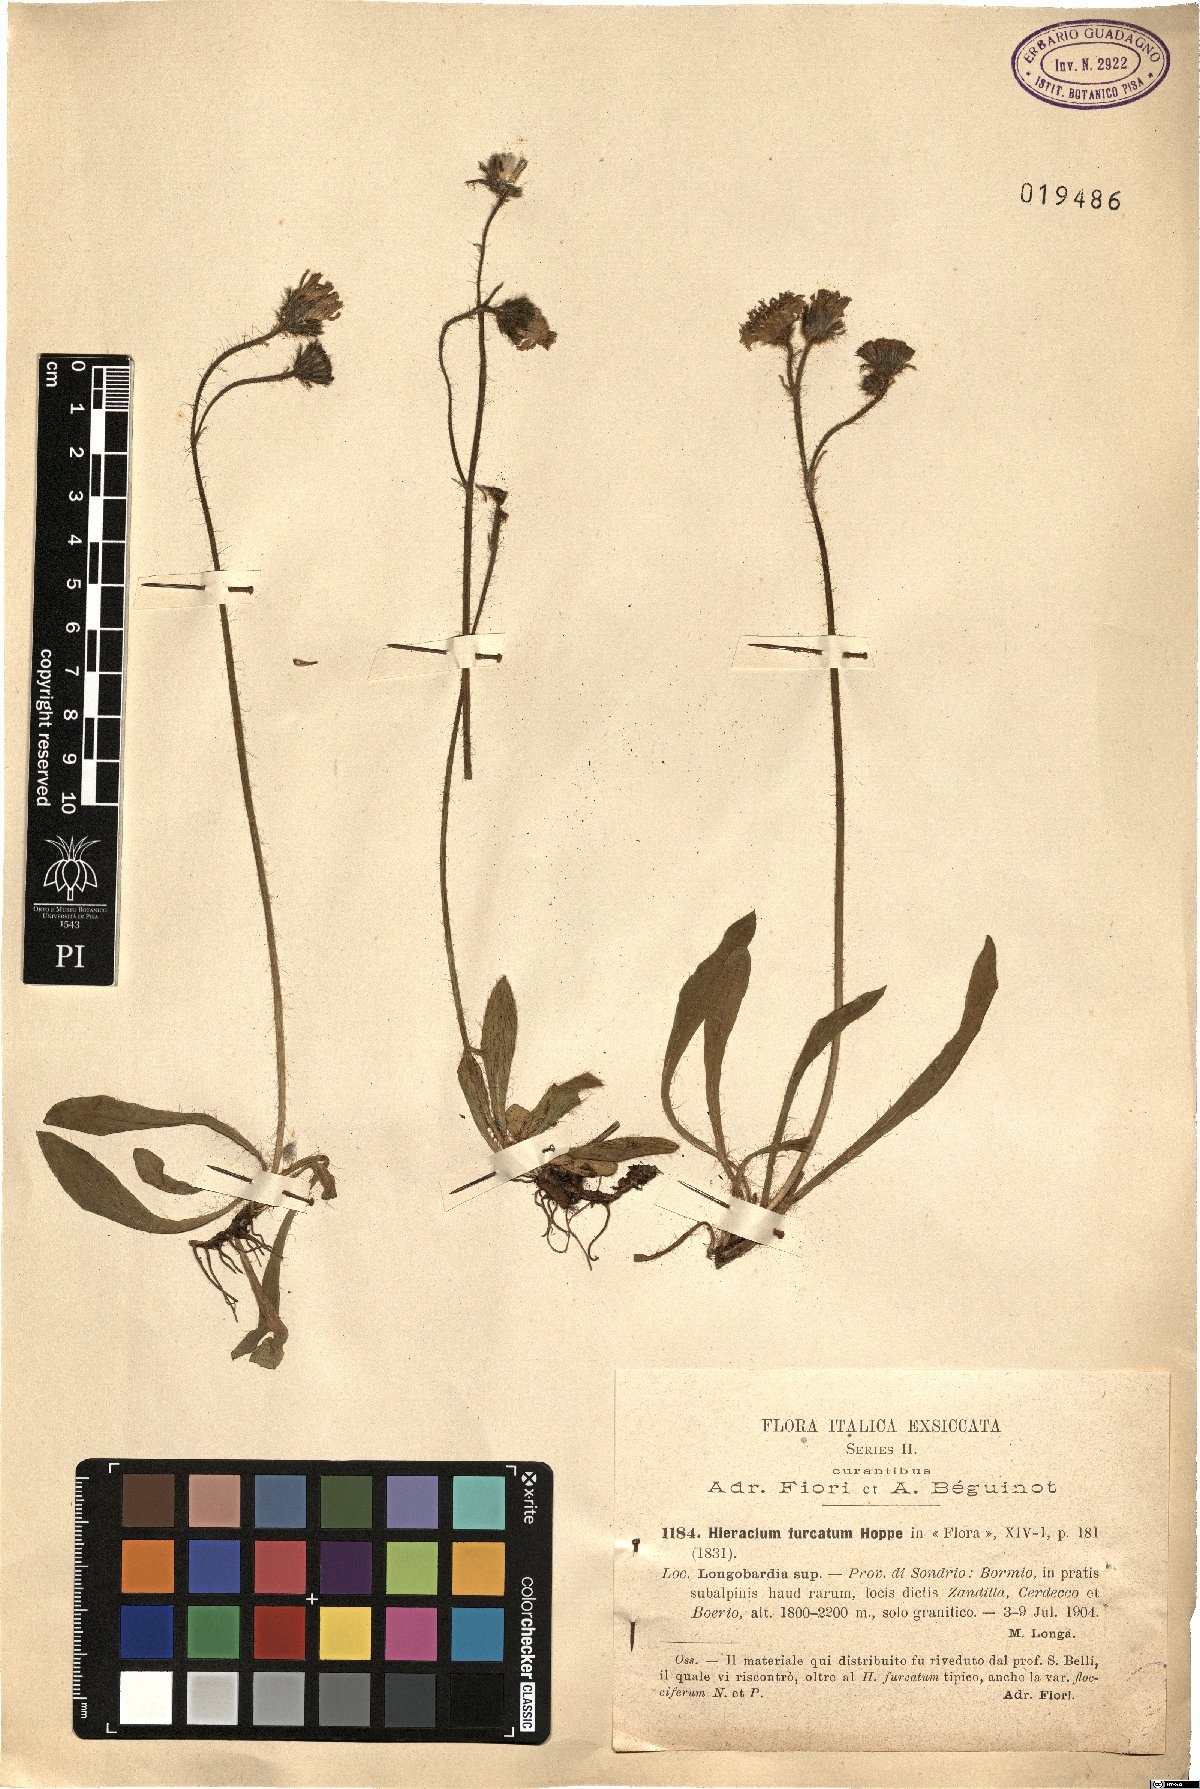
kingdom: Plantae
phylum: Tracheophyta
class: Magnoliopsida
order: Asterales
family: Asteraceae
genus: Pilosella
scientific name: Pilosella sphaerocephala
